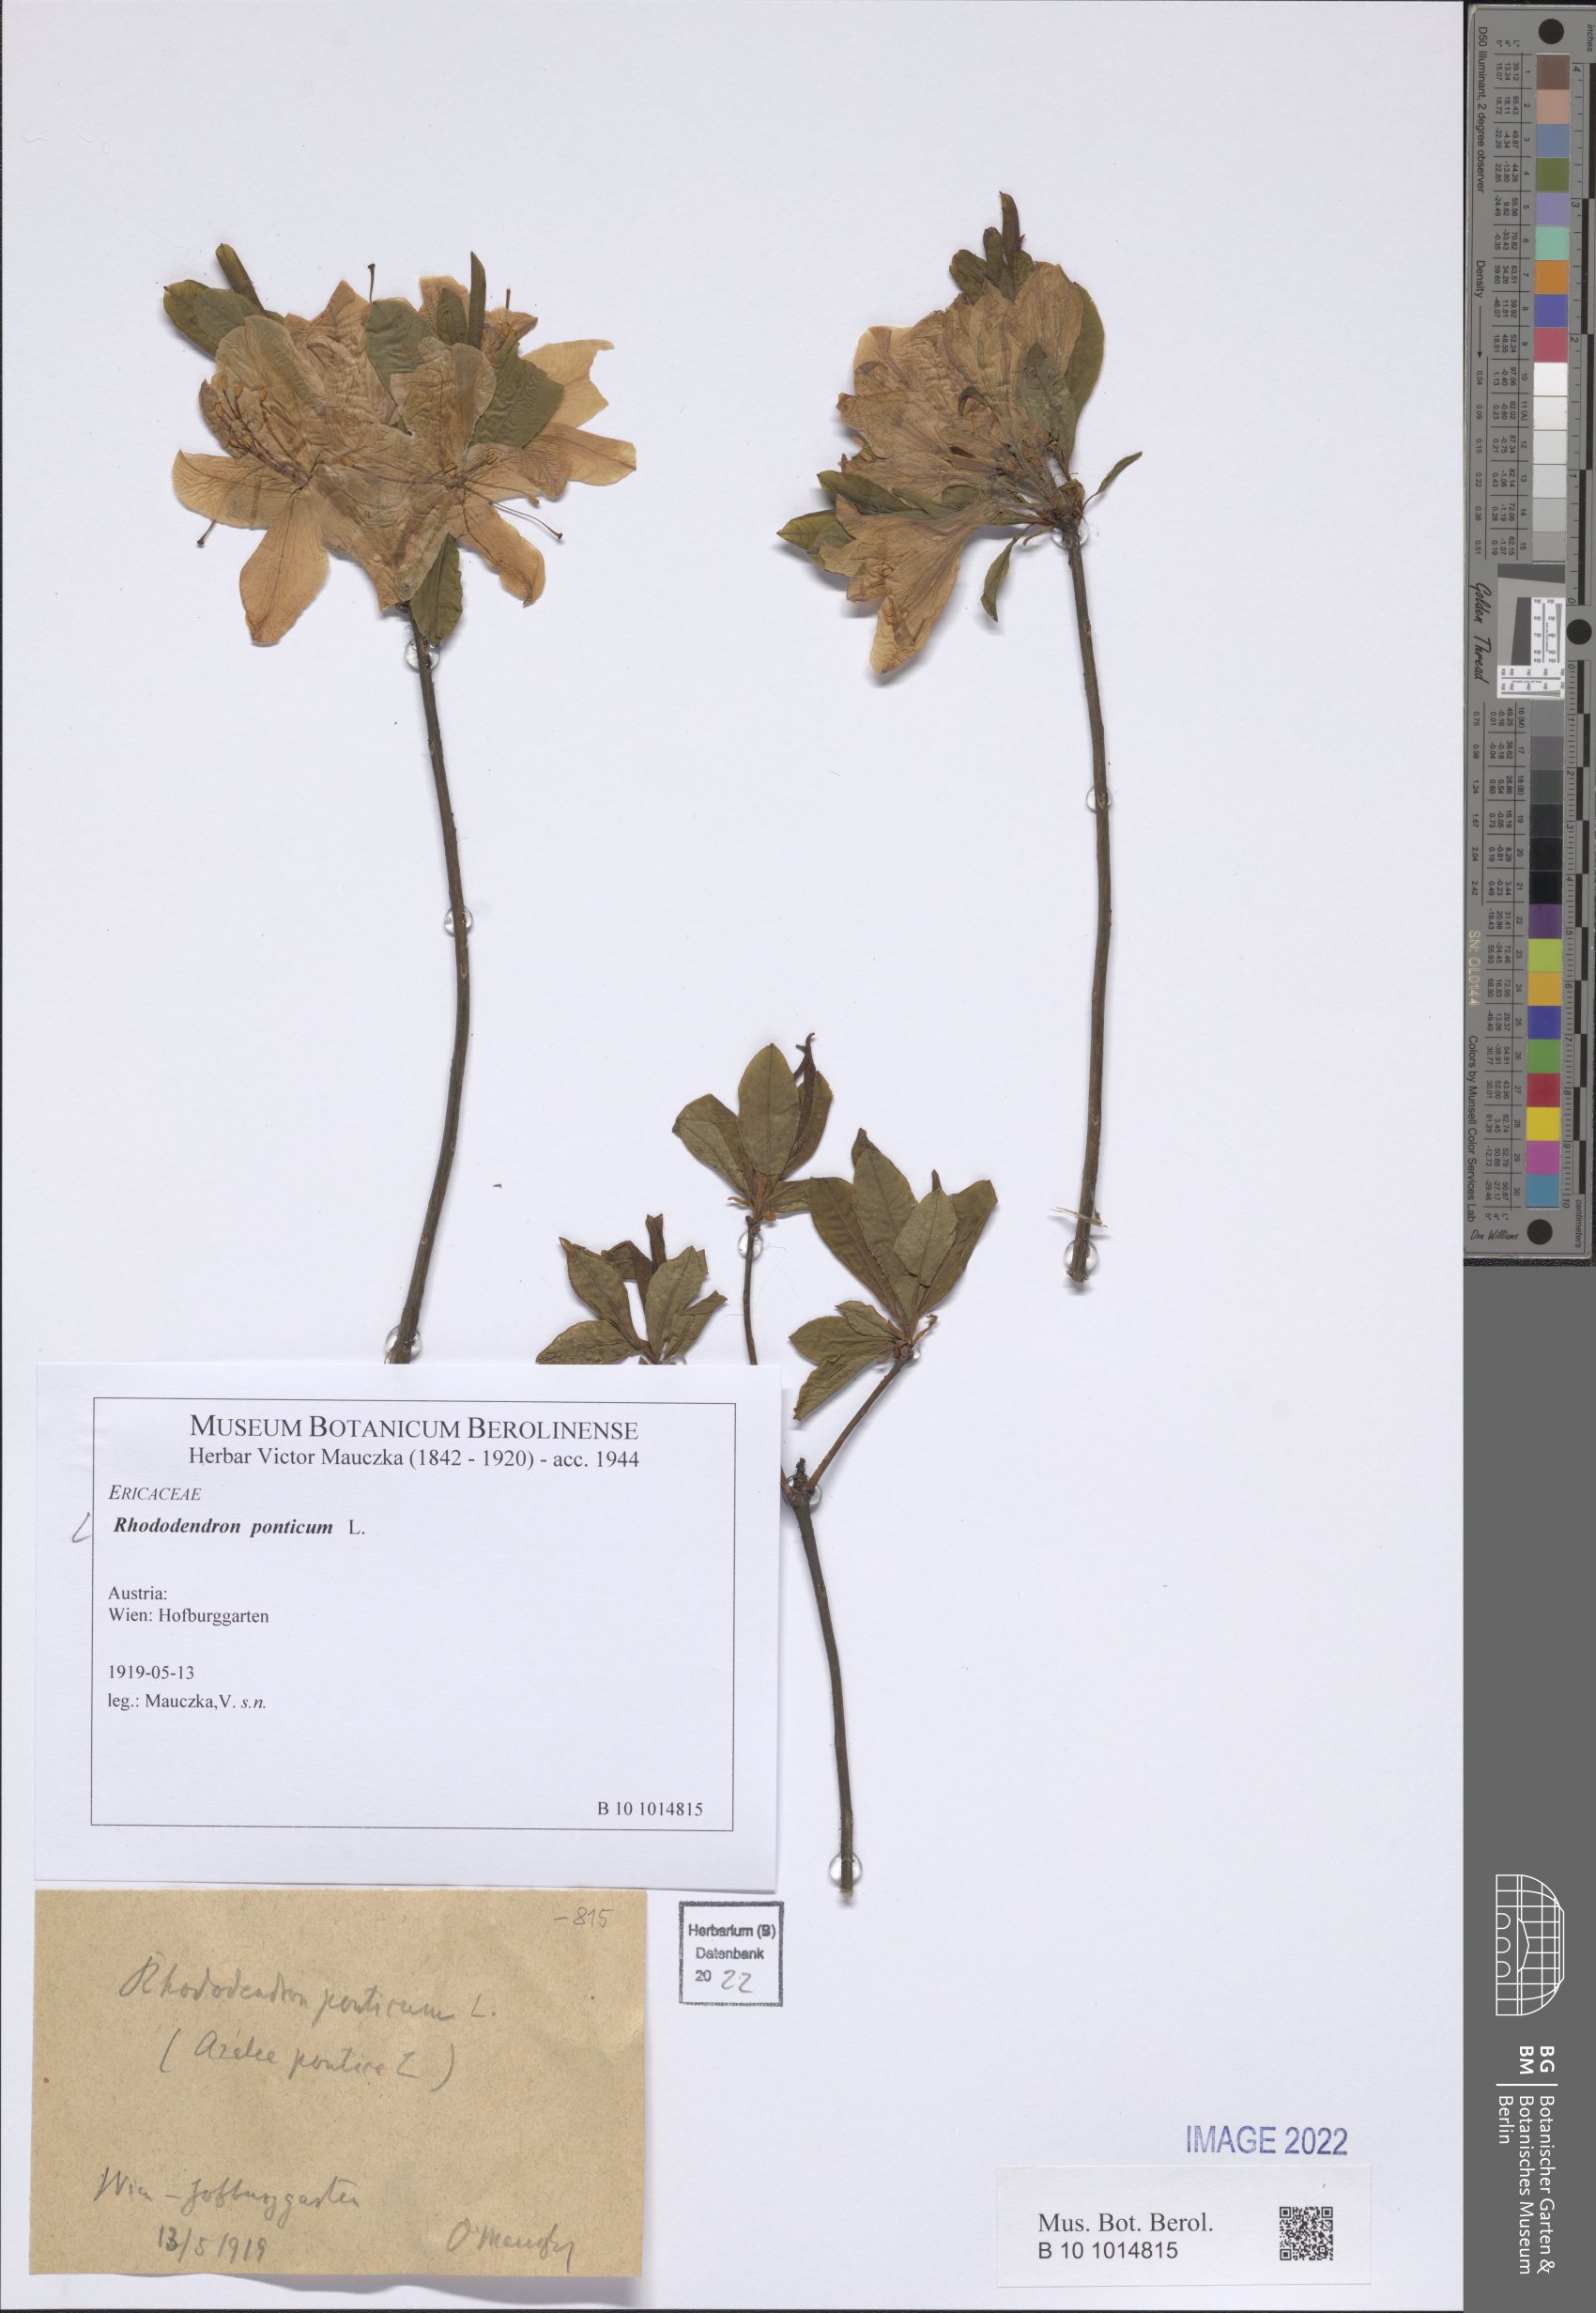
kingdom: Plantae
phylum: Tracheophyta
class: Magnoliopsida
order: Ericales
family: Ericaceae
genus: Rhododendron
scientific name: Rhododendron ponticum
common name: Rhododendron
